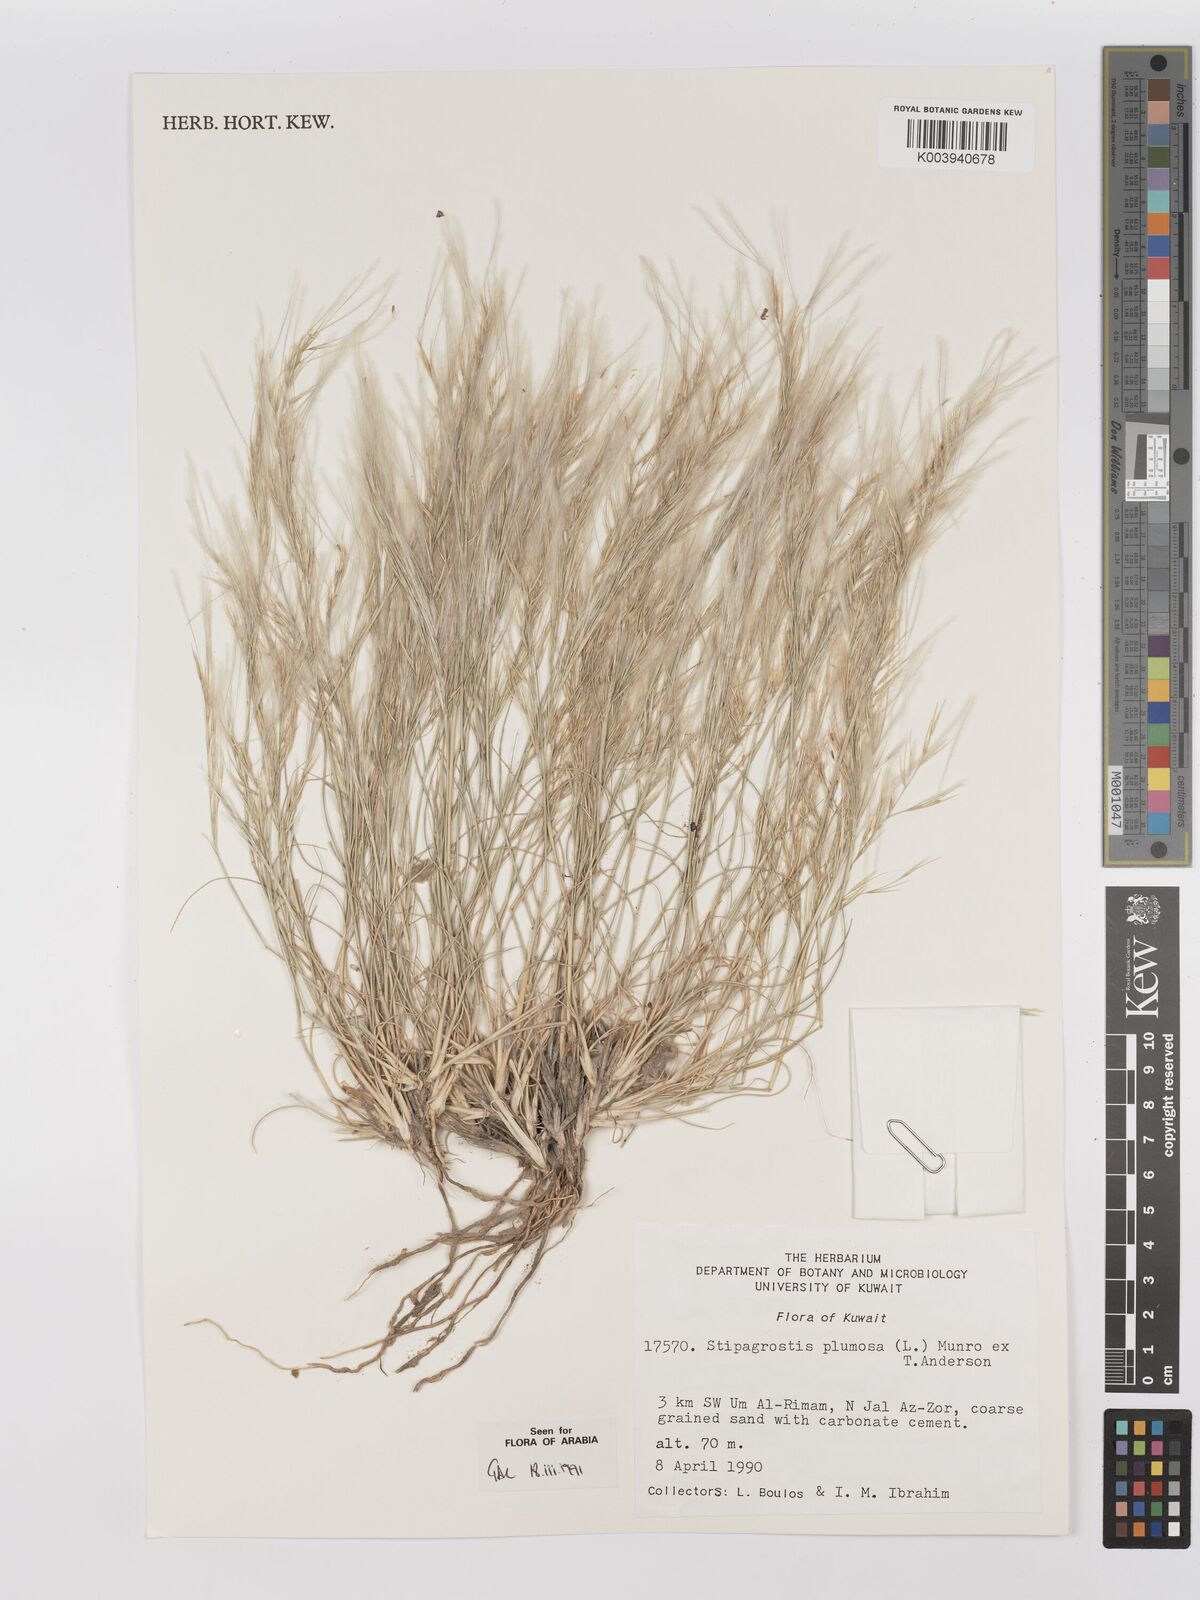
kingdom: Plantae
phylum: Tracheophyta
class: Liliopsida
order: Poales
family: Poaceae
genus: Stipagrostis
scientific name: Stipagrostis plumosa
